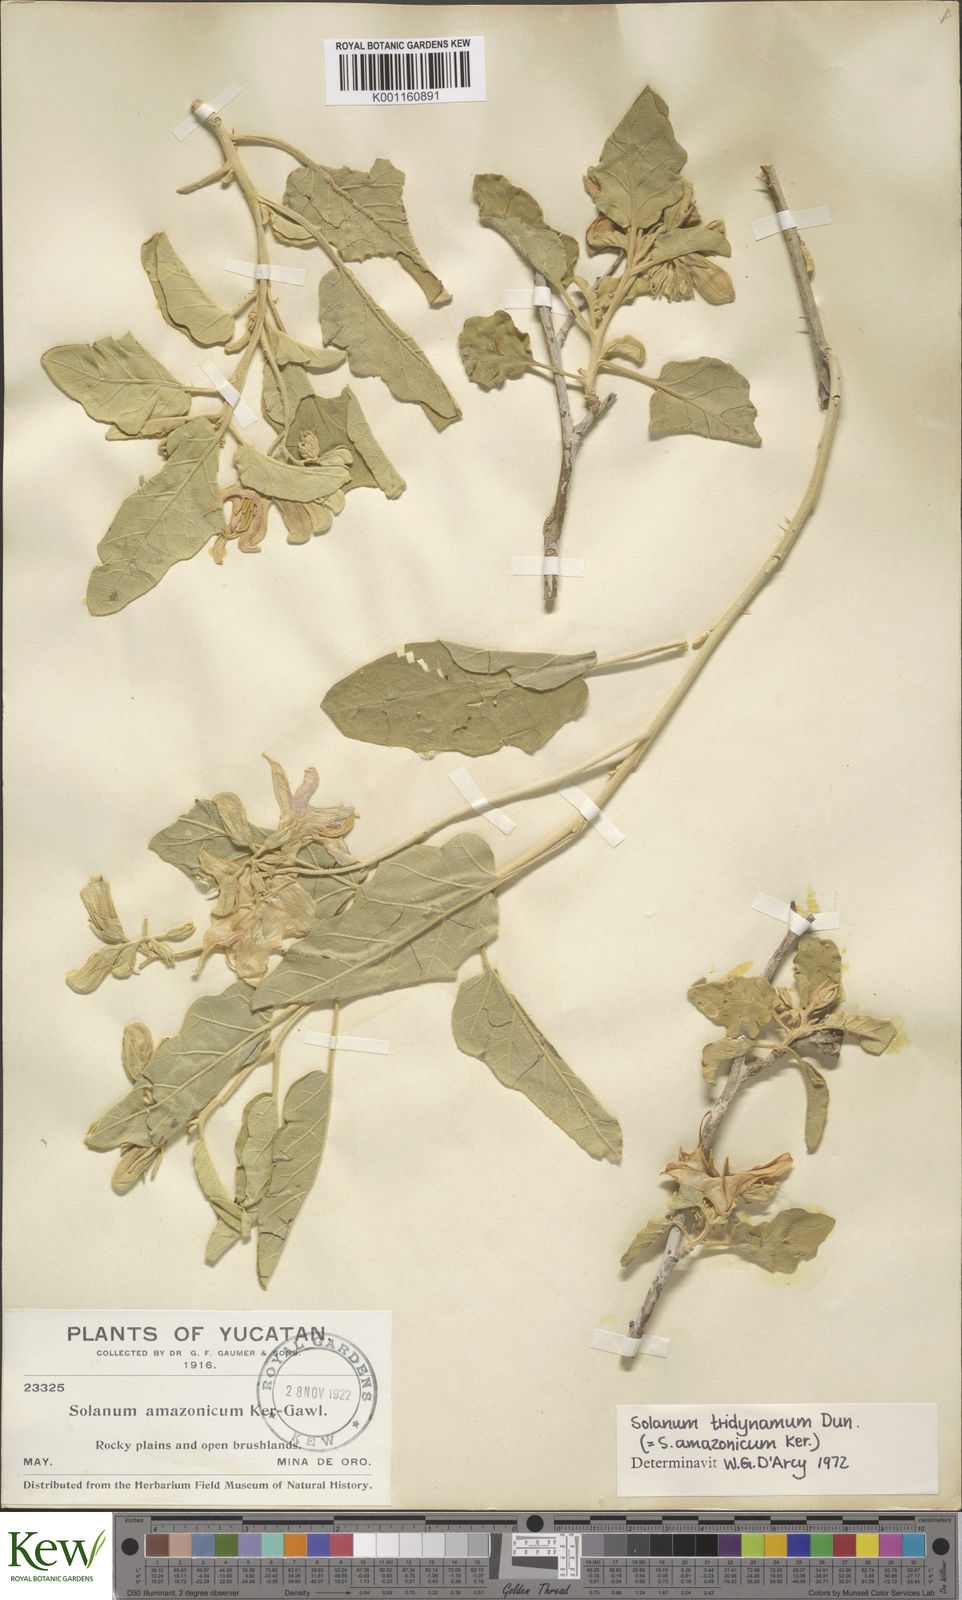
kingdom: Plantae
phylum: Tracheophyta
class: Magnoliopsida
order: Solanales
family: Solanaceae
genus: Solanum
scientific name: Solanum houstonii
